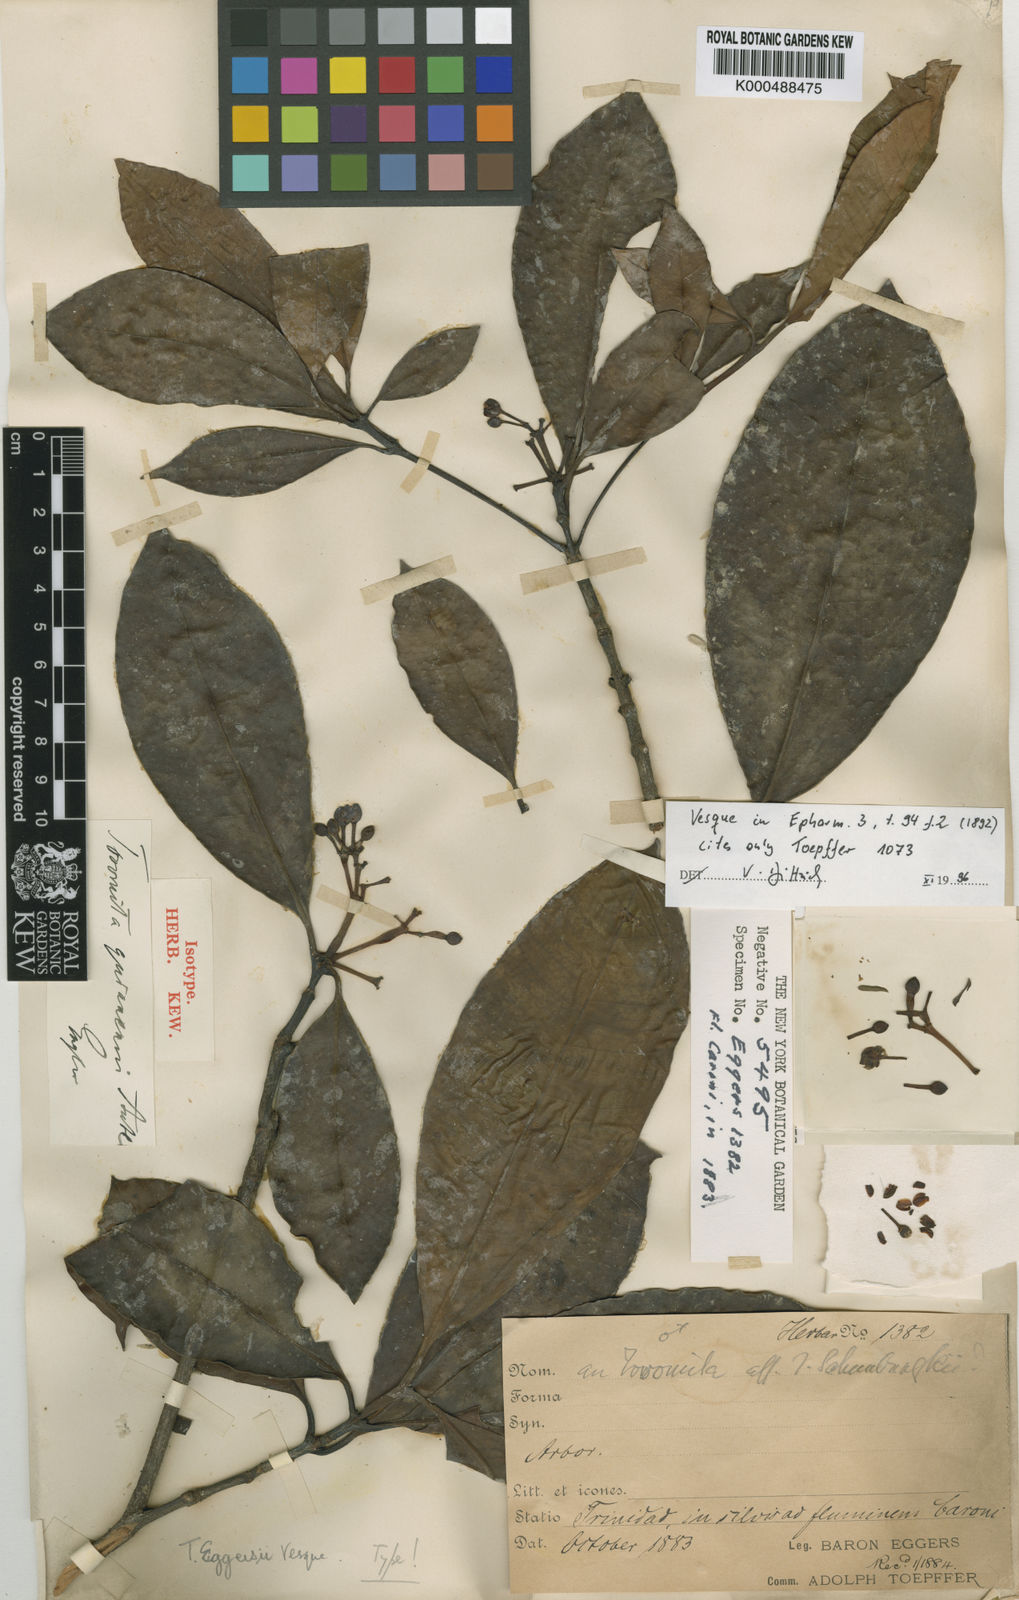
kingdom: Plantae
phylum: Tracheophyta
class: Magnoliopsida
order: Malpighiales
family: Clusiaceae
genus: Tovomita
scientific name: Tovomita eggersii
